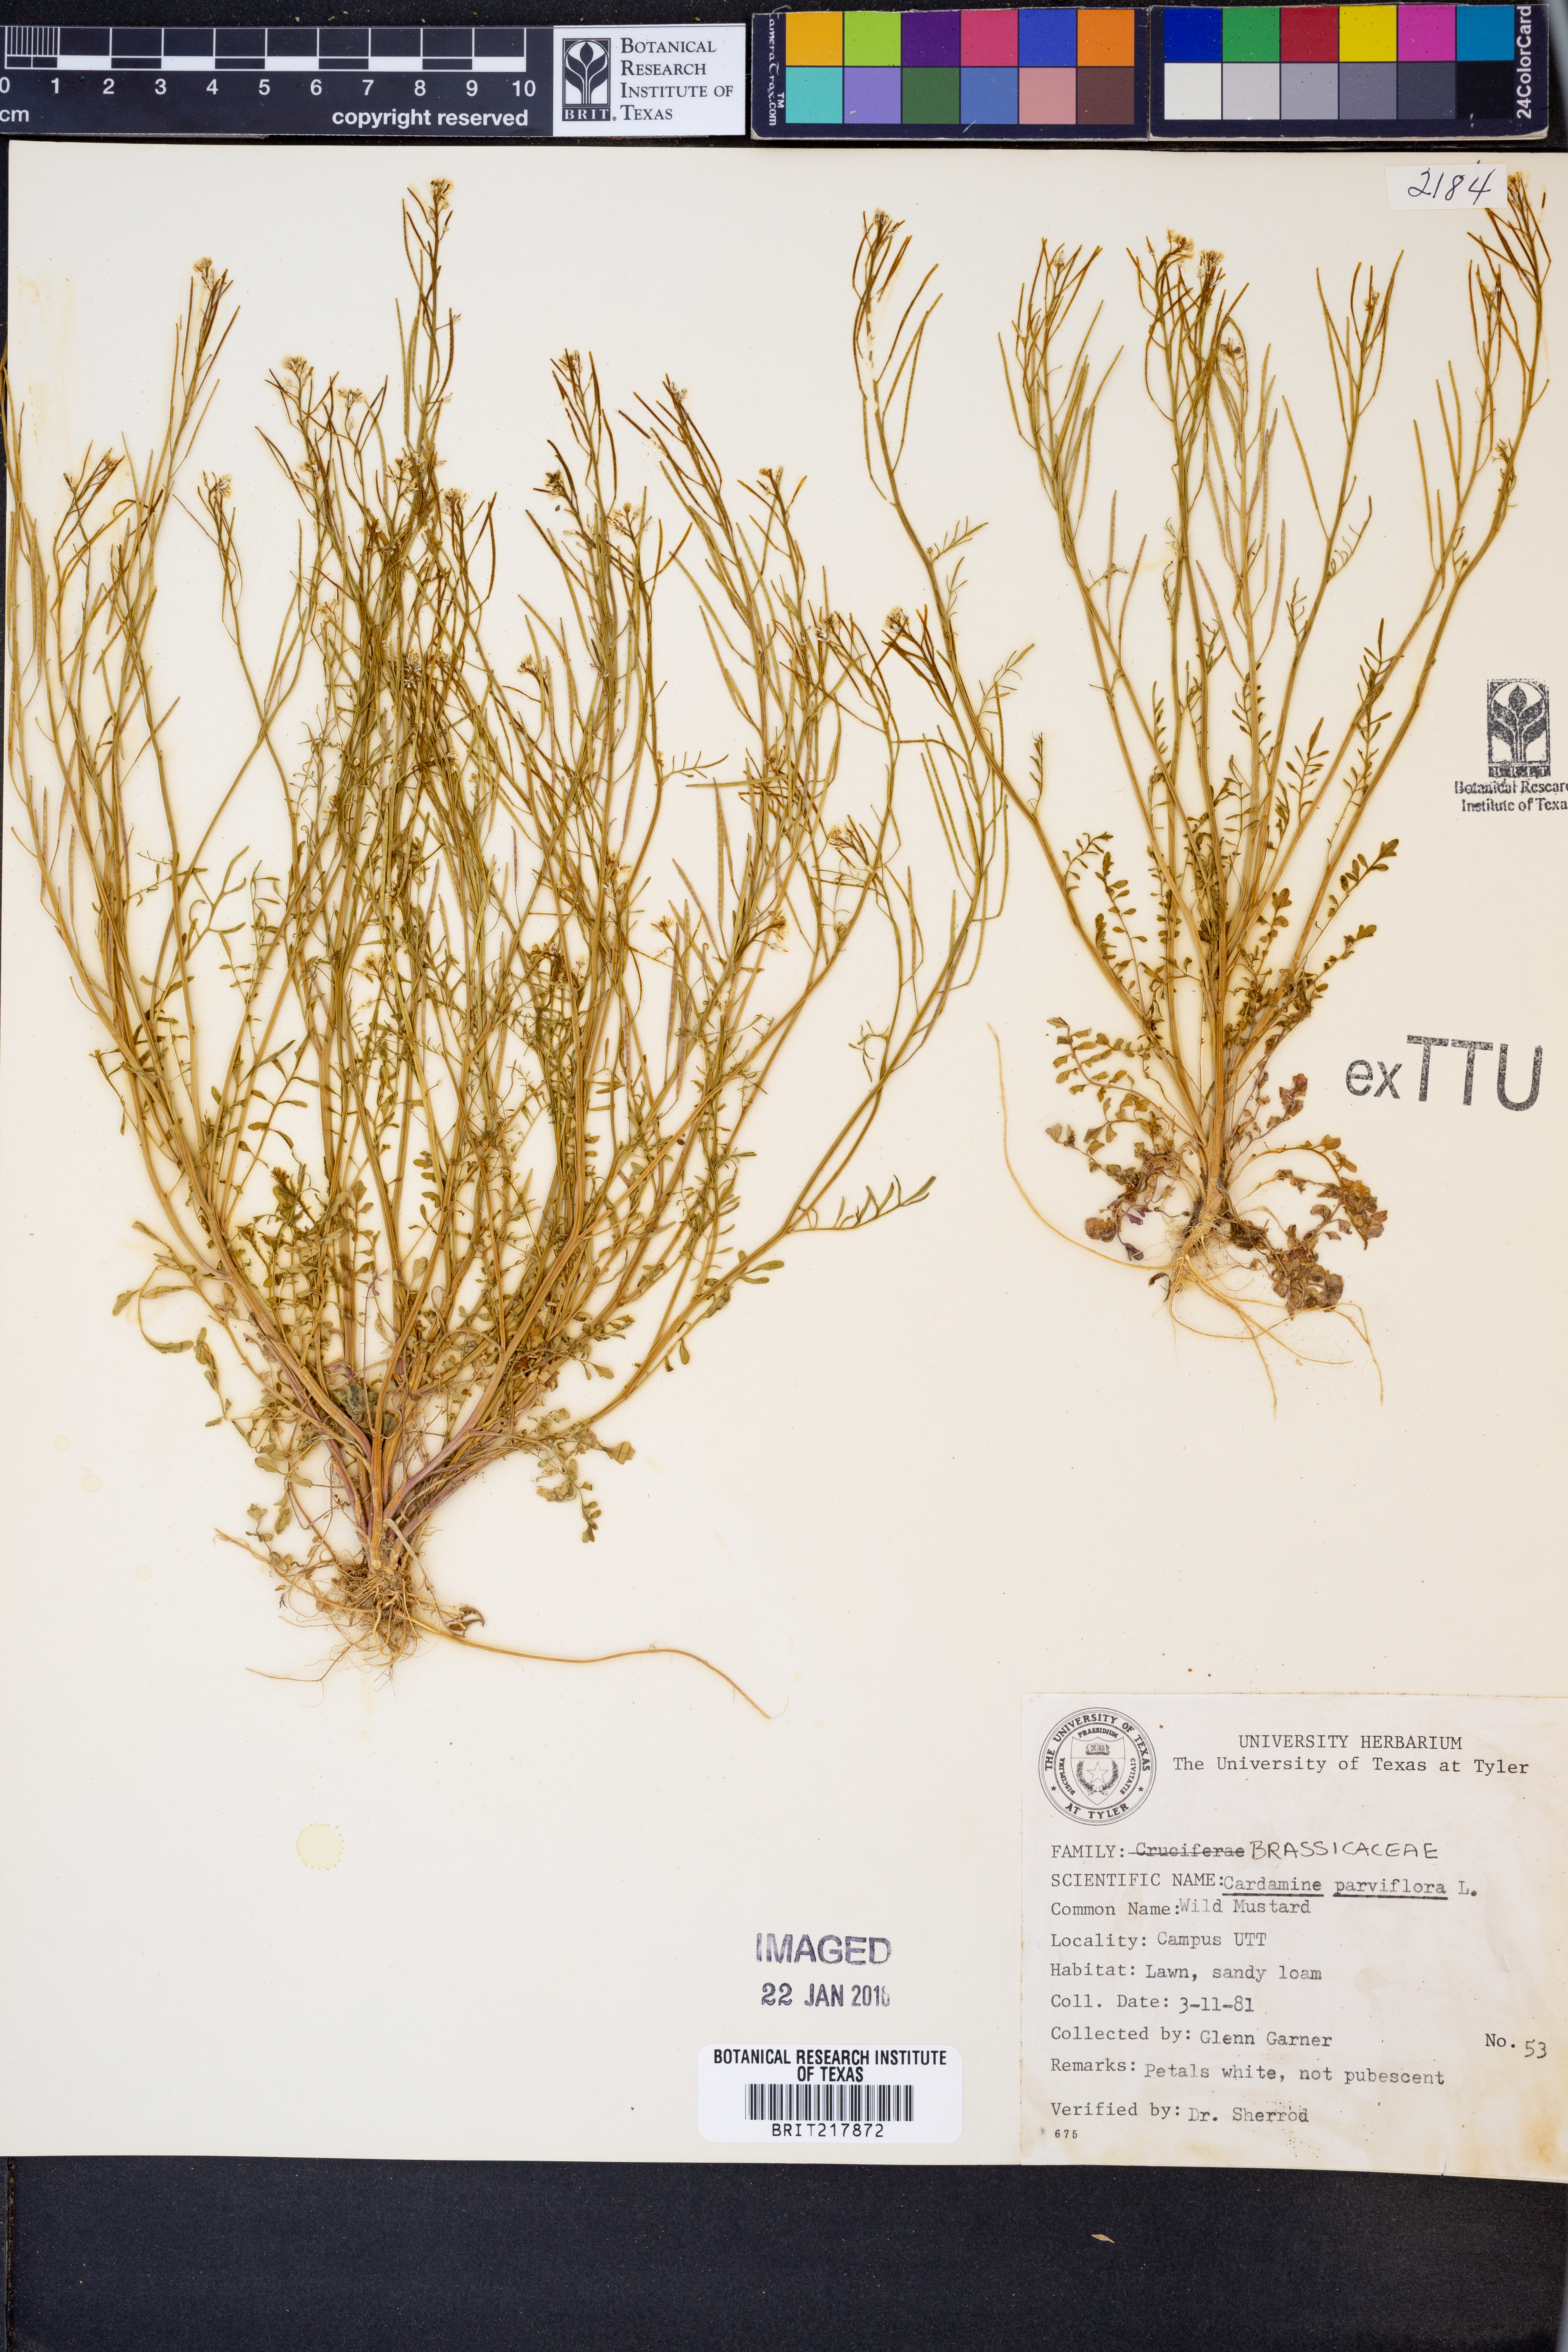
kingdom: Plantae
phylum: Tracheophyta
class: Magnoliopsida
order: Brassicales
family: Brassicaceae
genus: Cardamine
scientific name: Cardamine parviflora
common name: Sand bittercress
